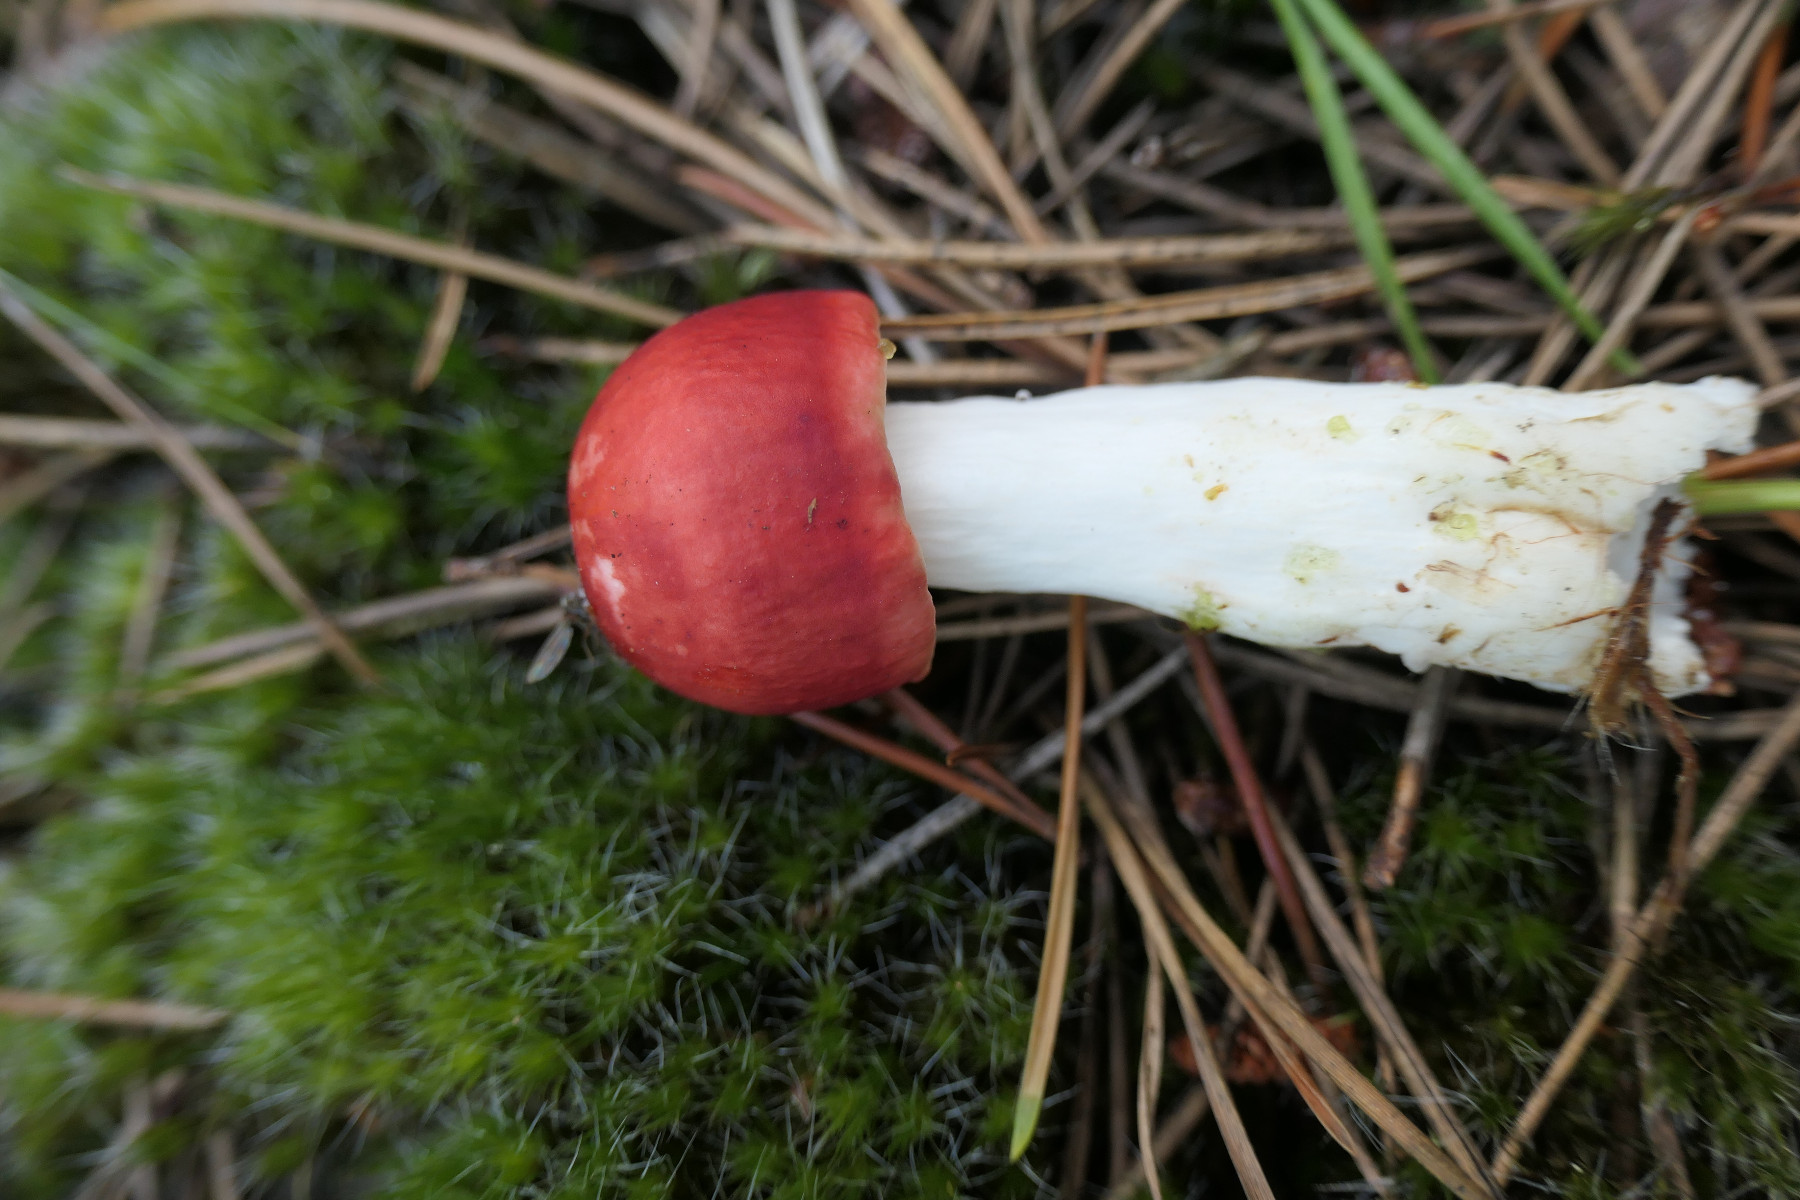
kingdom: Fungi
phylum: Basidiomycota
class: Agaricomycetes
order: Russulales
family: Russulaceae
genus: Russula
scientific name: Russula emetica
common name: stor gift-skørhat
